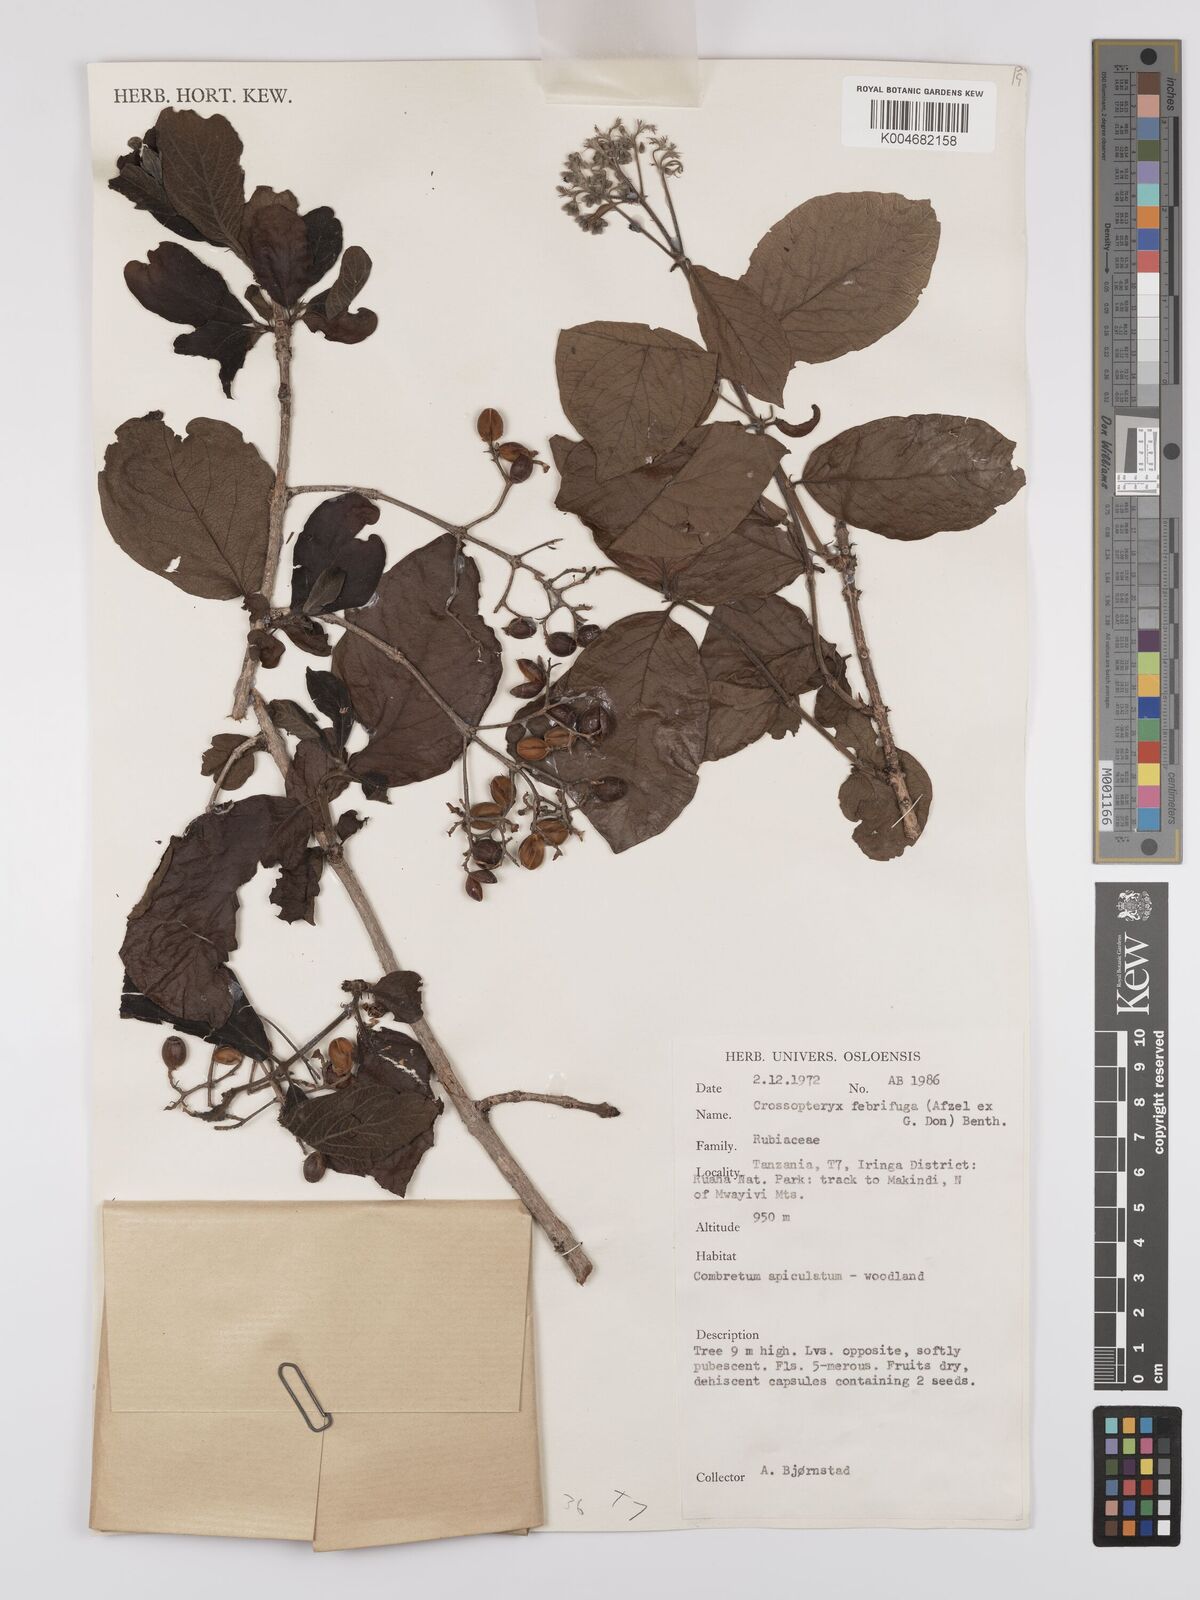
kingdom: Plantae
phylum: Tracheophyta
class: Magnoliopsida
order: Gentianales
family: Rubiaceae
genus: Crossopteryx
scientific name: Crossopteryx febrifuga
